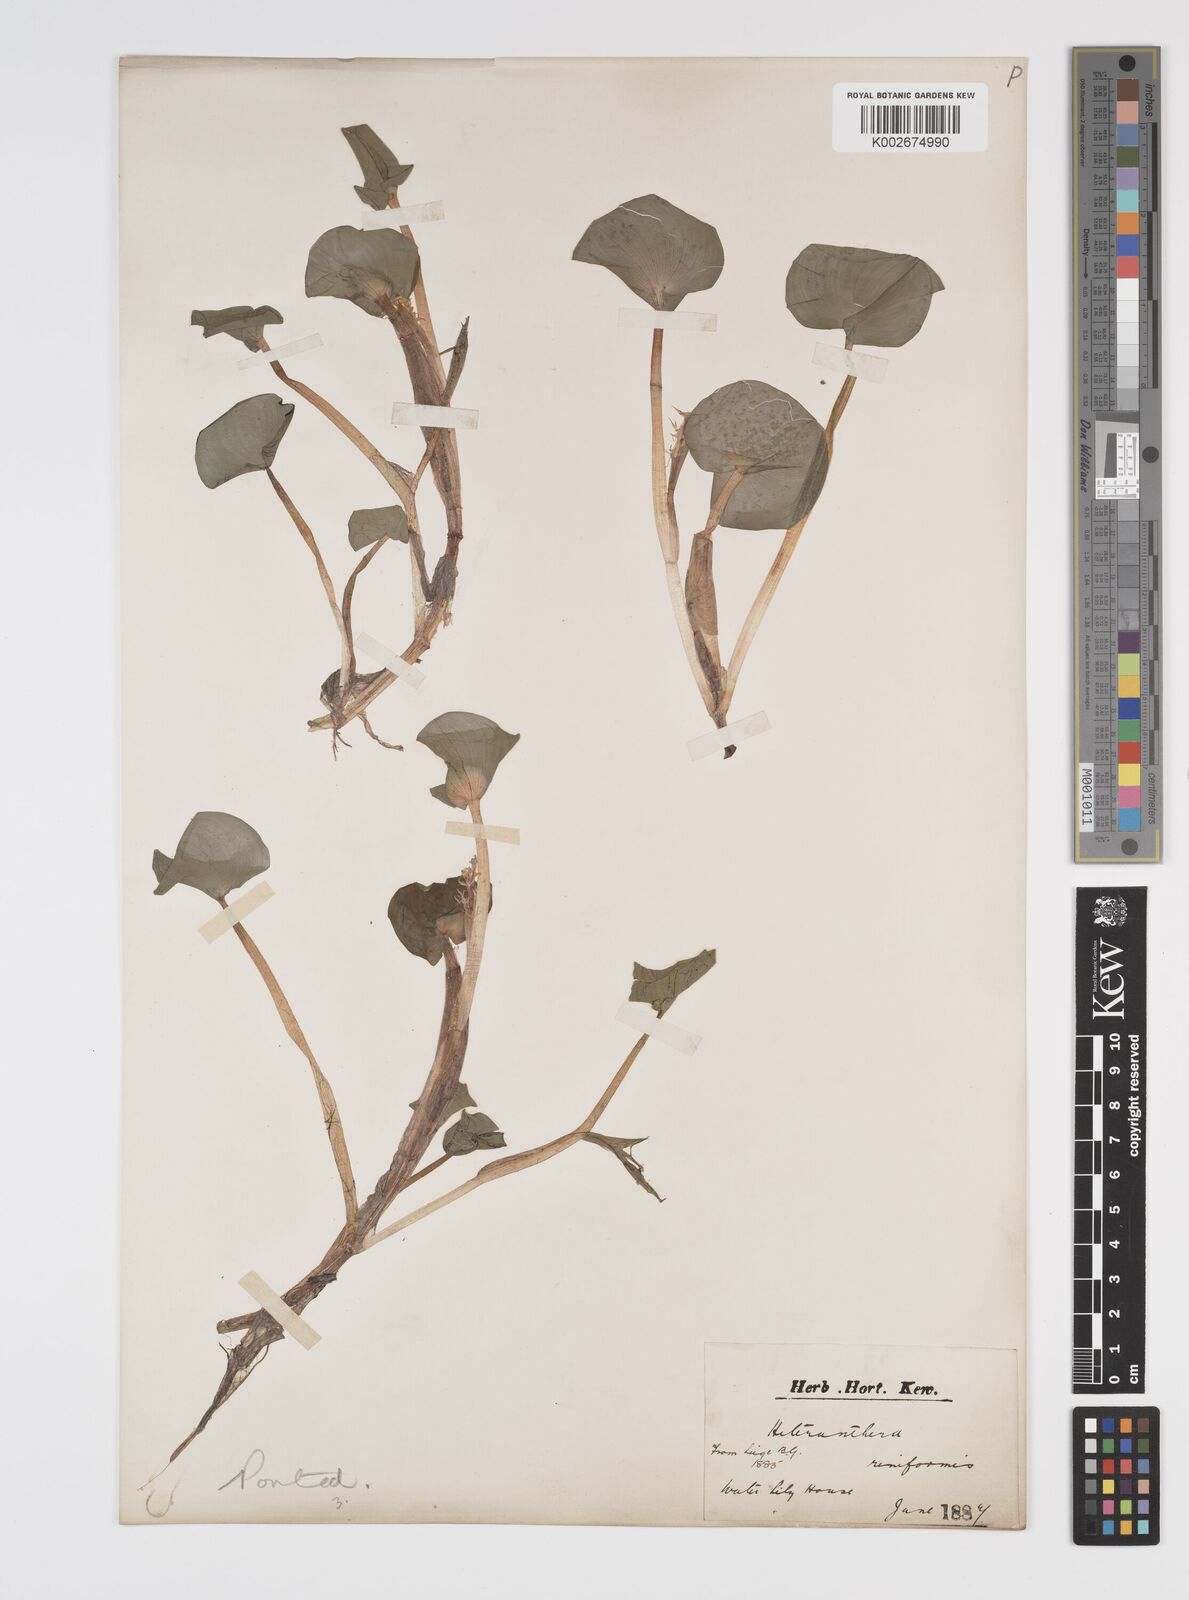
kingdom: Plantae
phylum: Tracheophyta
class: Liliopsida
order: Commelinales
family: Pontederiaceae
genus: Heteranthera
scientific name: Heteranthera reniformis
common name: Kidneyleaf mudplantain
